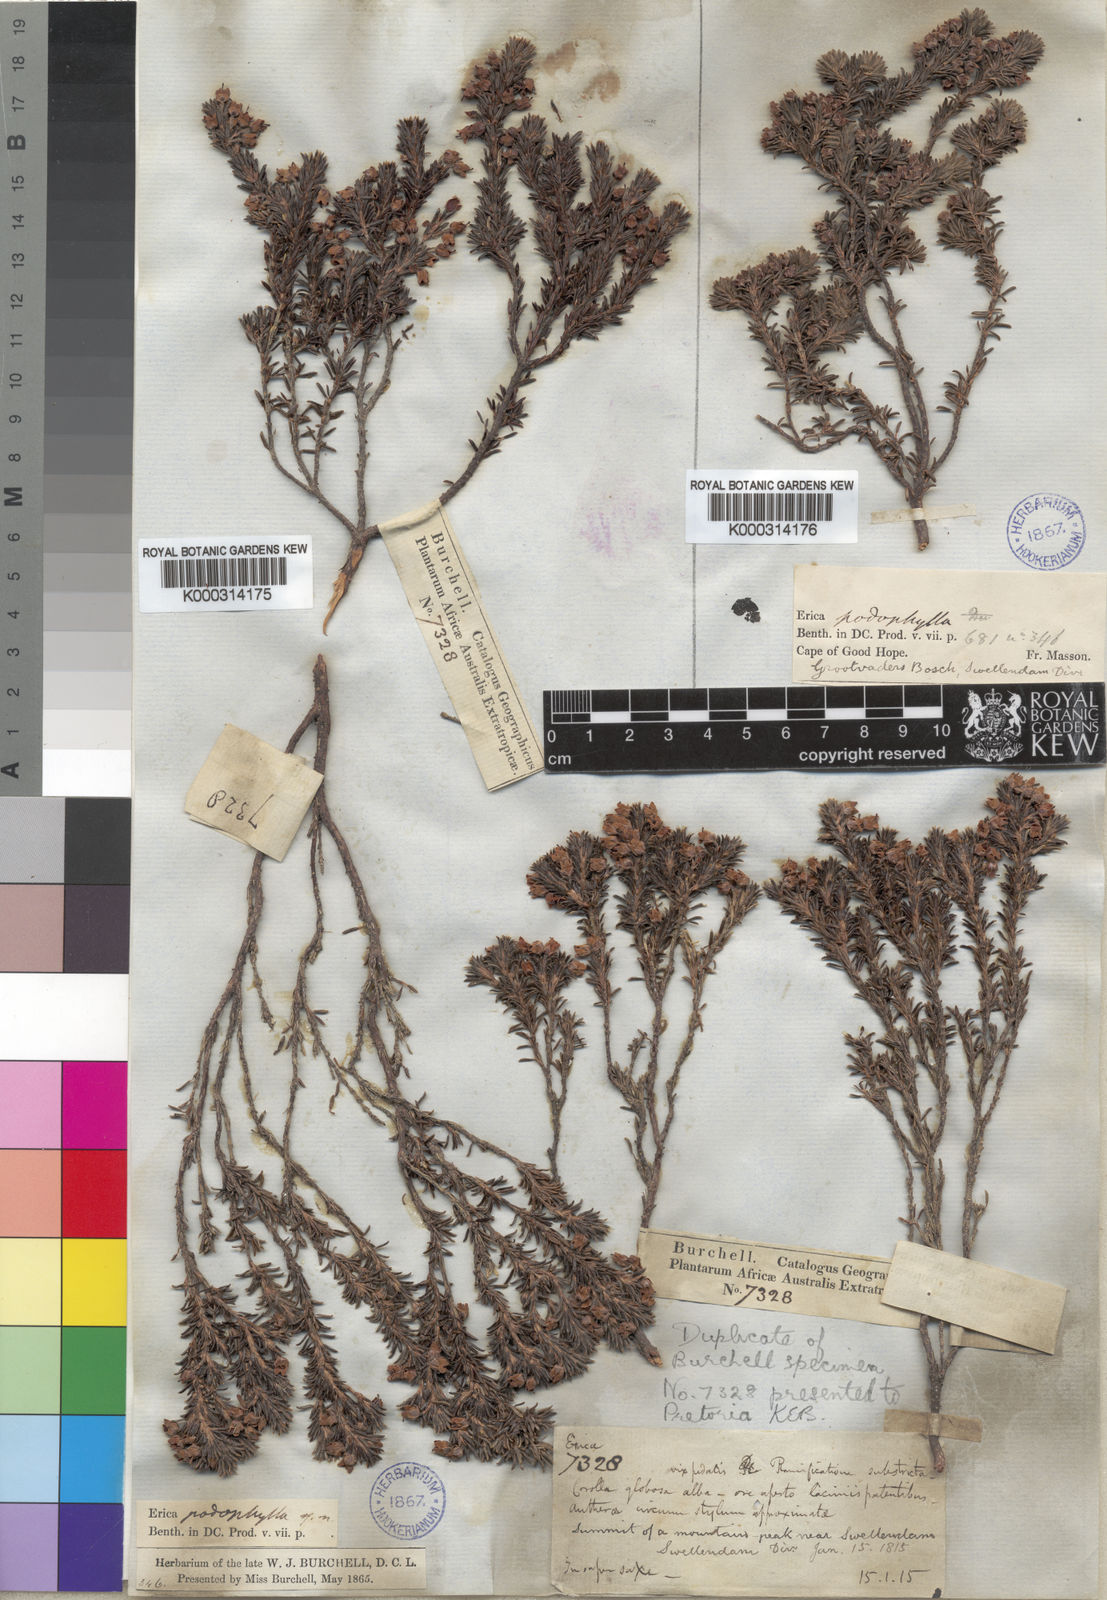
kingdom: Plantae
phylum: Tracheophyta
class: Magnoliopsida
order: Ericales
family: Ericaceae
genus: Erica
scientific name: Erica podophylla
